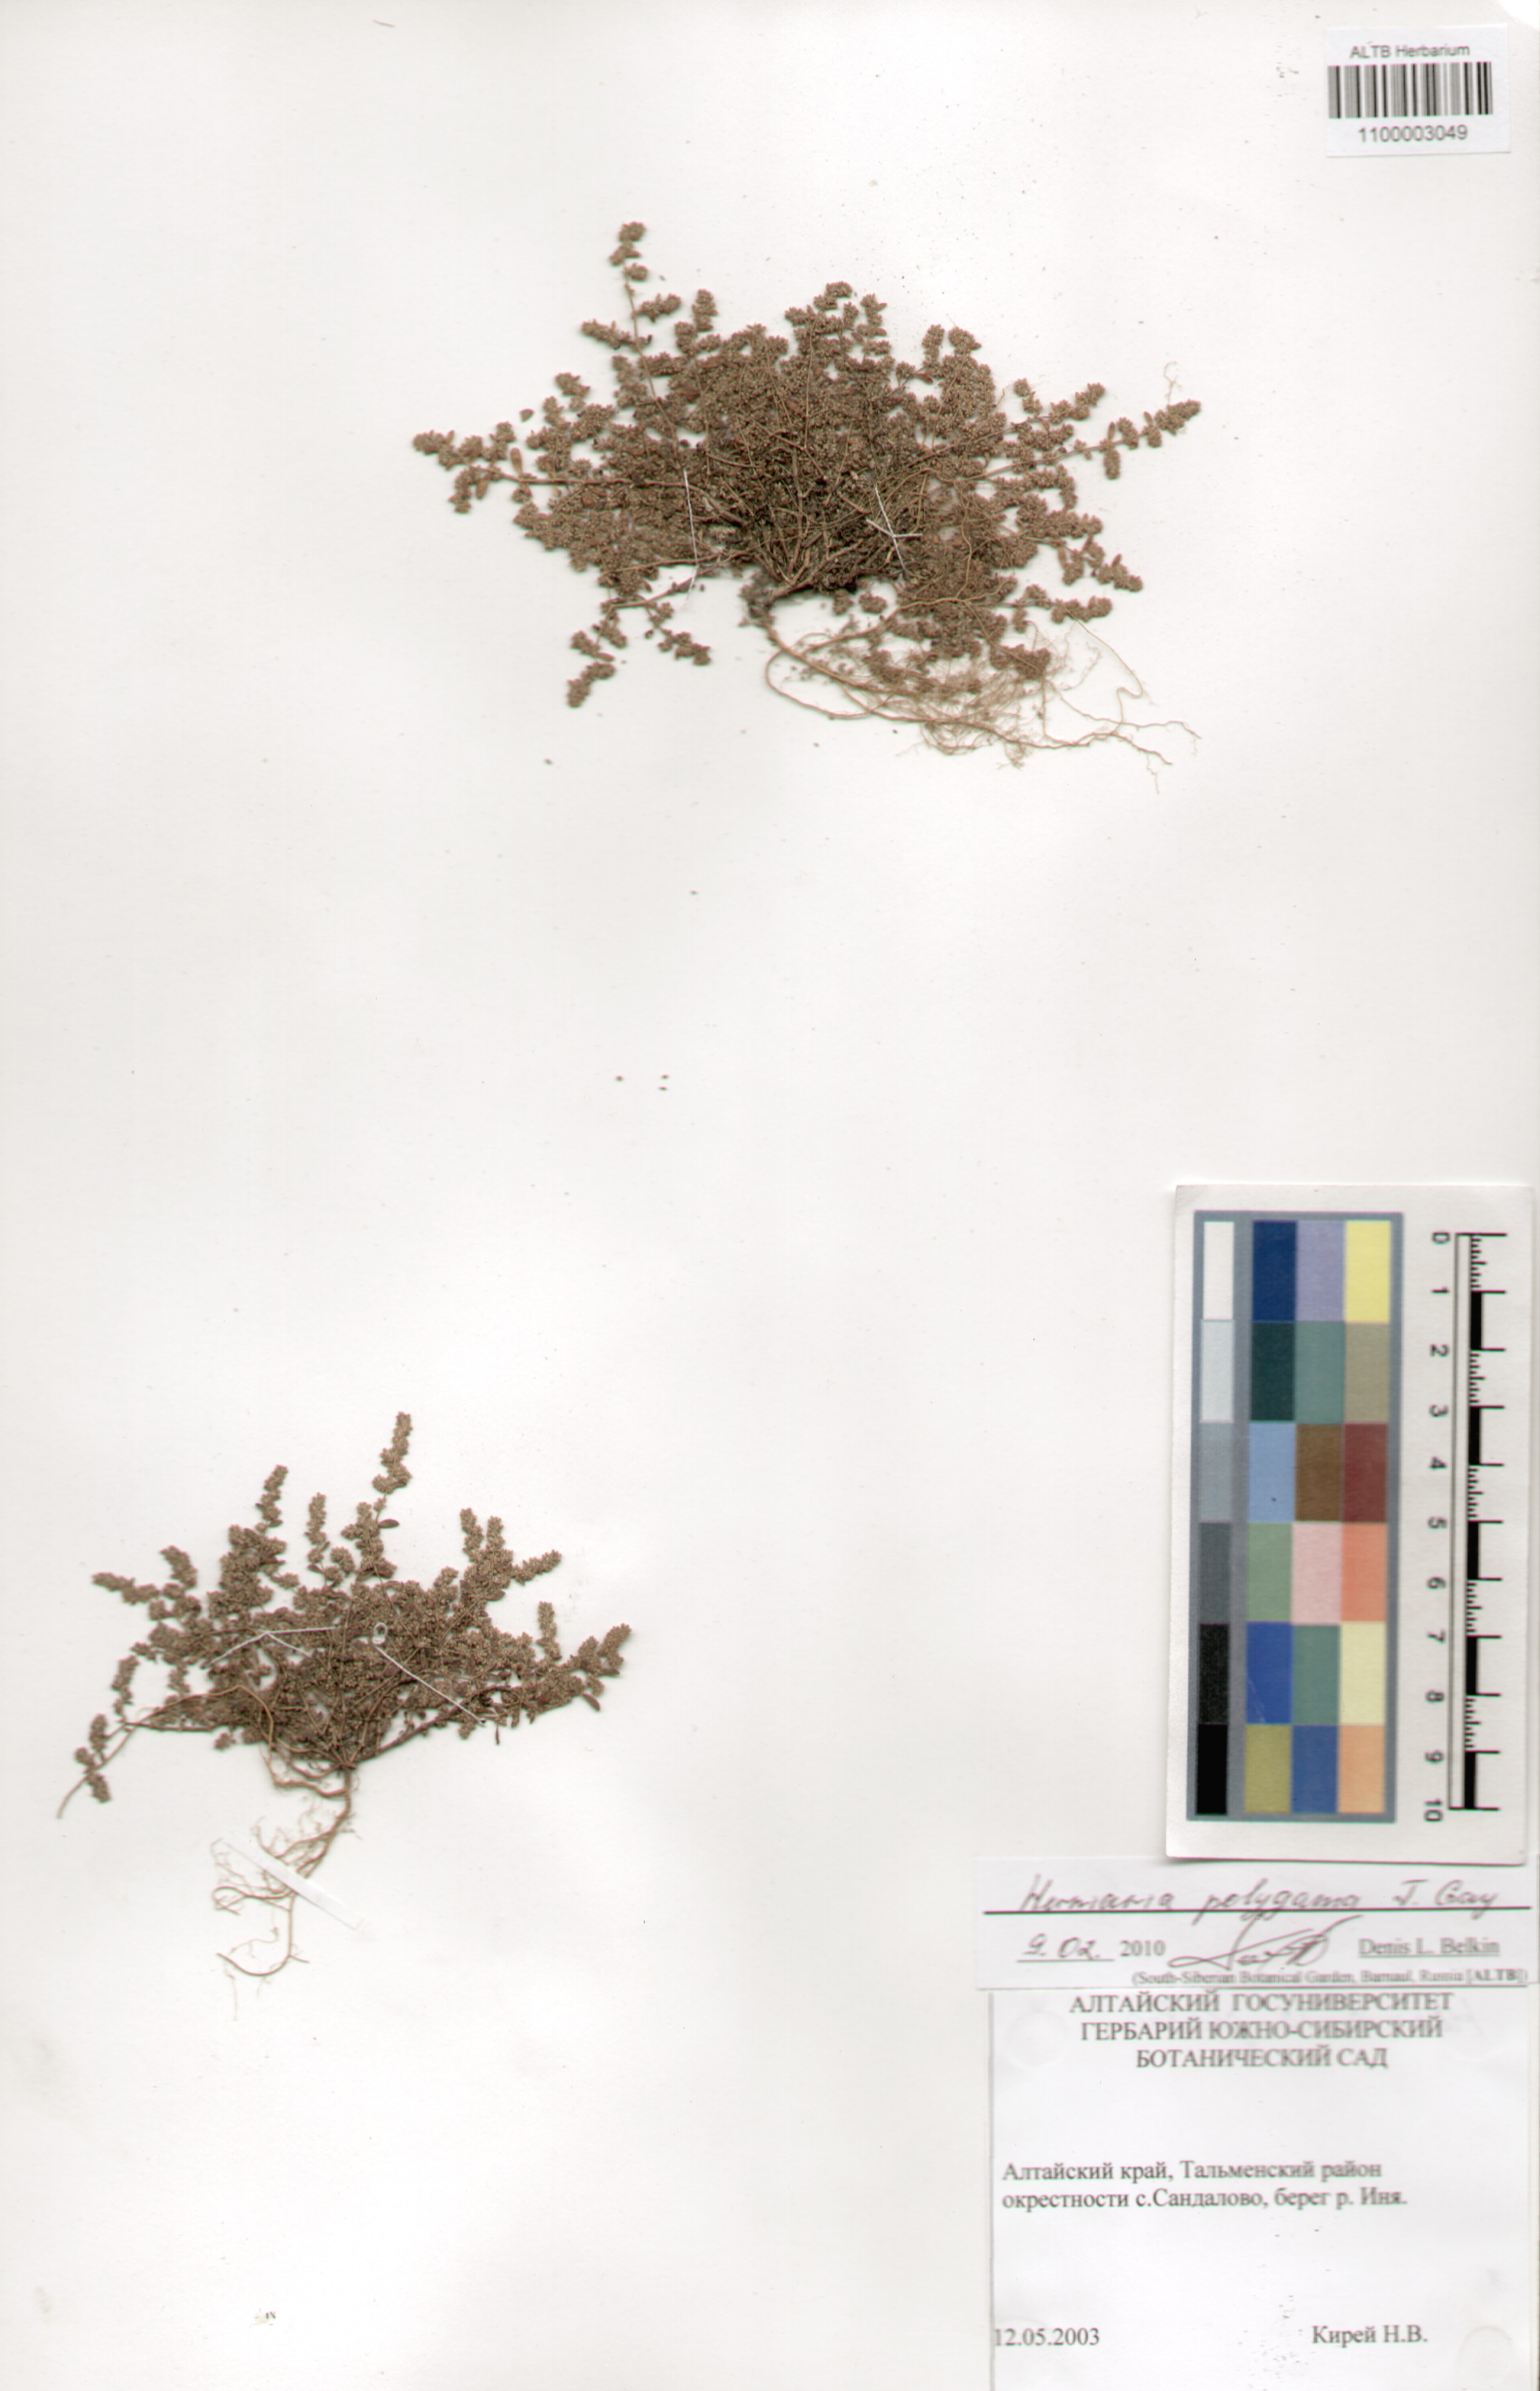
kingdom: Plantae
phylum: Tracheophyta
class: Magnoliopsida
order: Caryophyllales
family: Caryophyllaceae
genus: Herniaria
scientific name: Herniaria polygama
